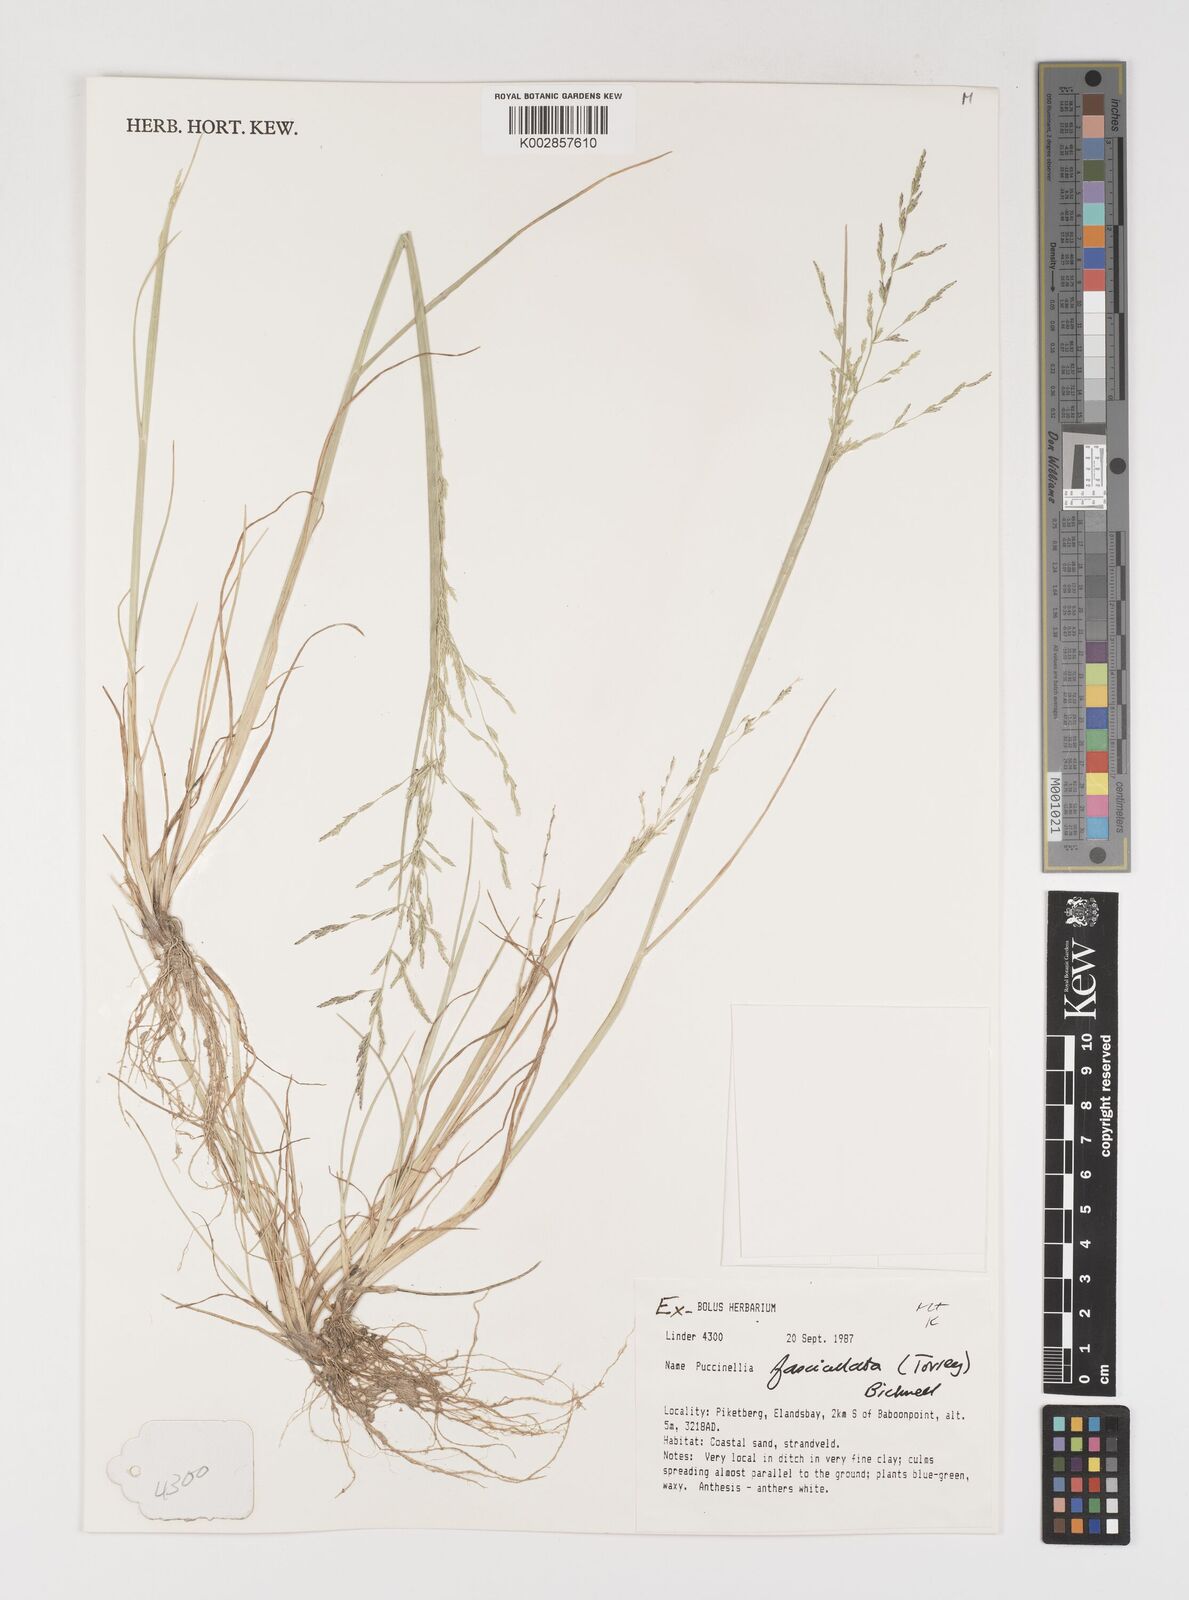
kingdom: Plantae
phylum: Tracheophyta
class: Liliopsida
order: Poales
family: Poaceae
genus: Puccinellia
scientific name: Puccinellia fasciculata
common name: Borrer's saltmarsh-grass
